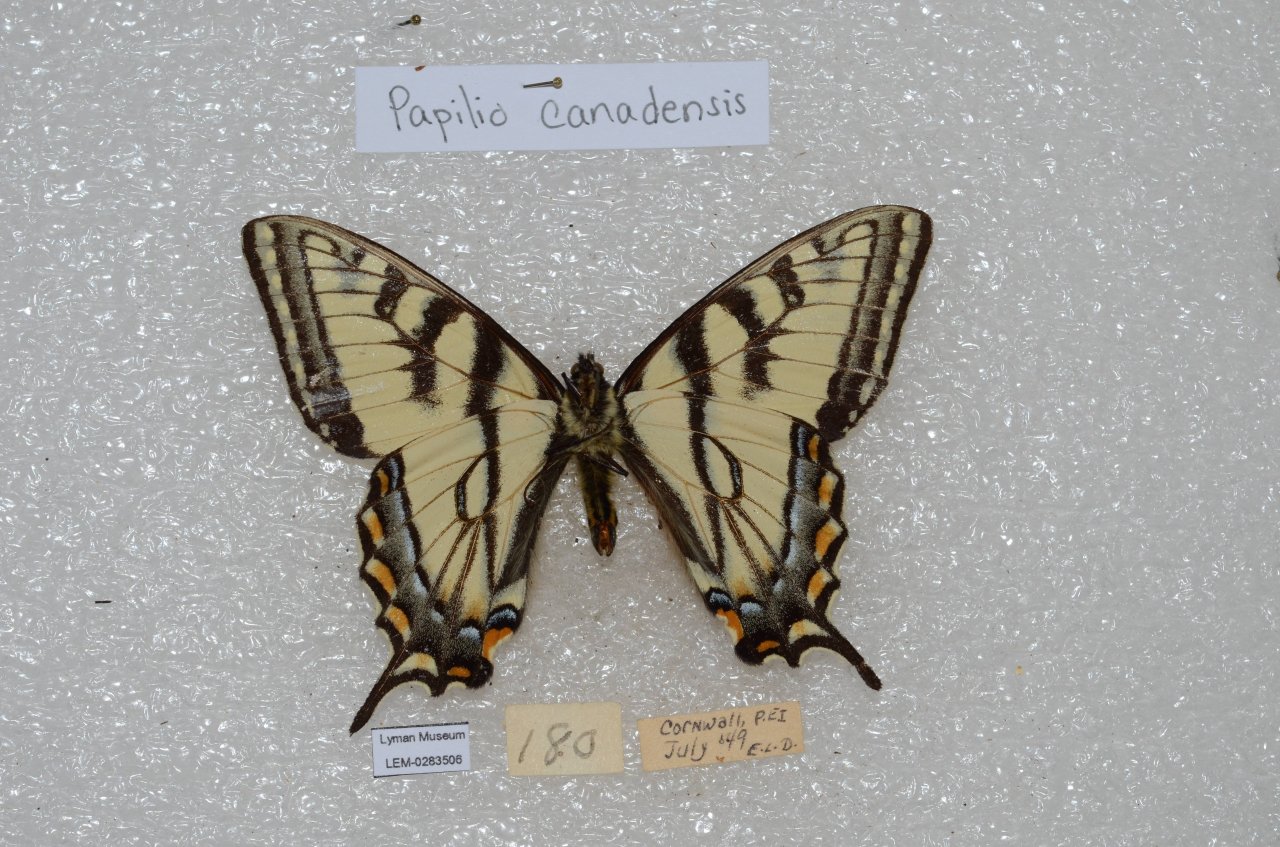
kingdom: Animalia
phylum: Arthropoda
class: Insecta
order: Lepidoptera
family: Papilionidae
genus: Pterourus
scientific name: Pterourus canadensis
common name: Canadian Tiger Swallowtail
